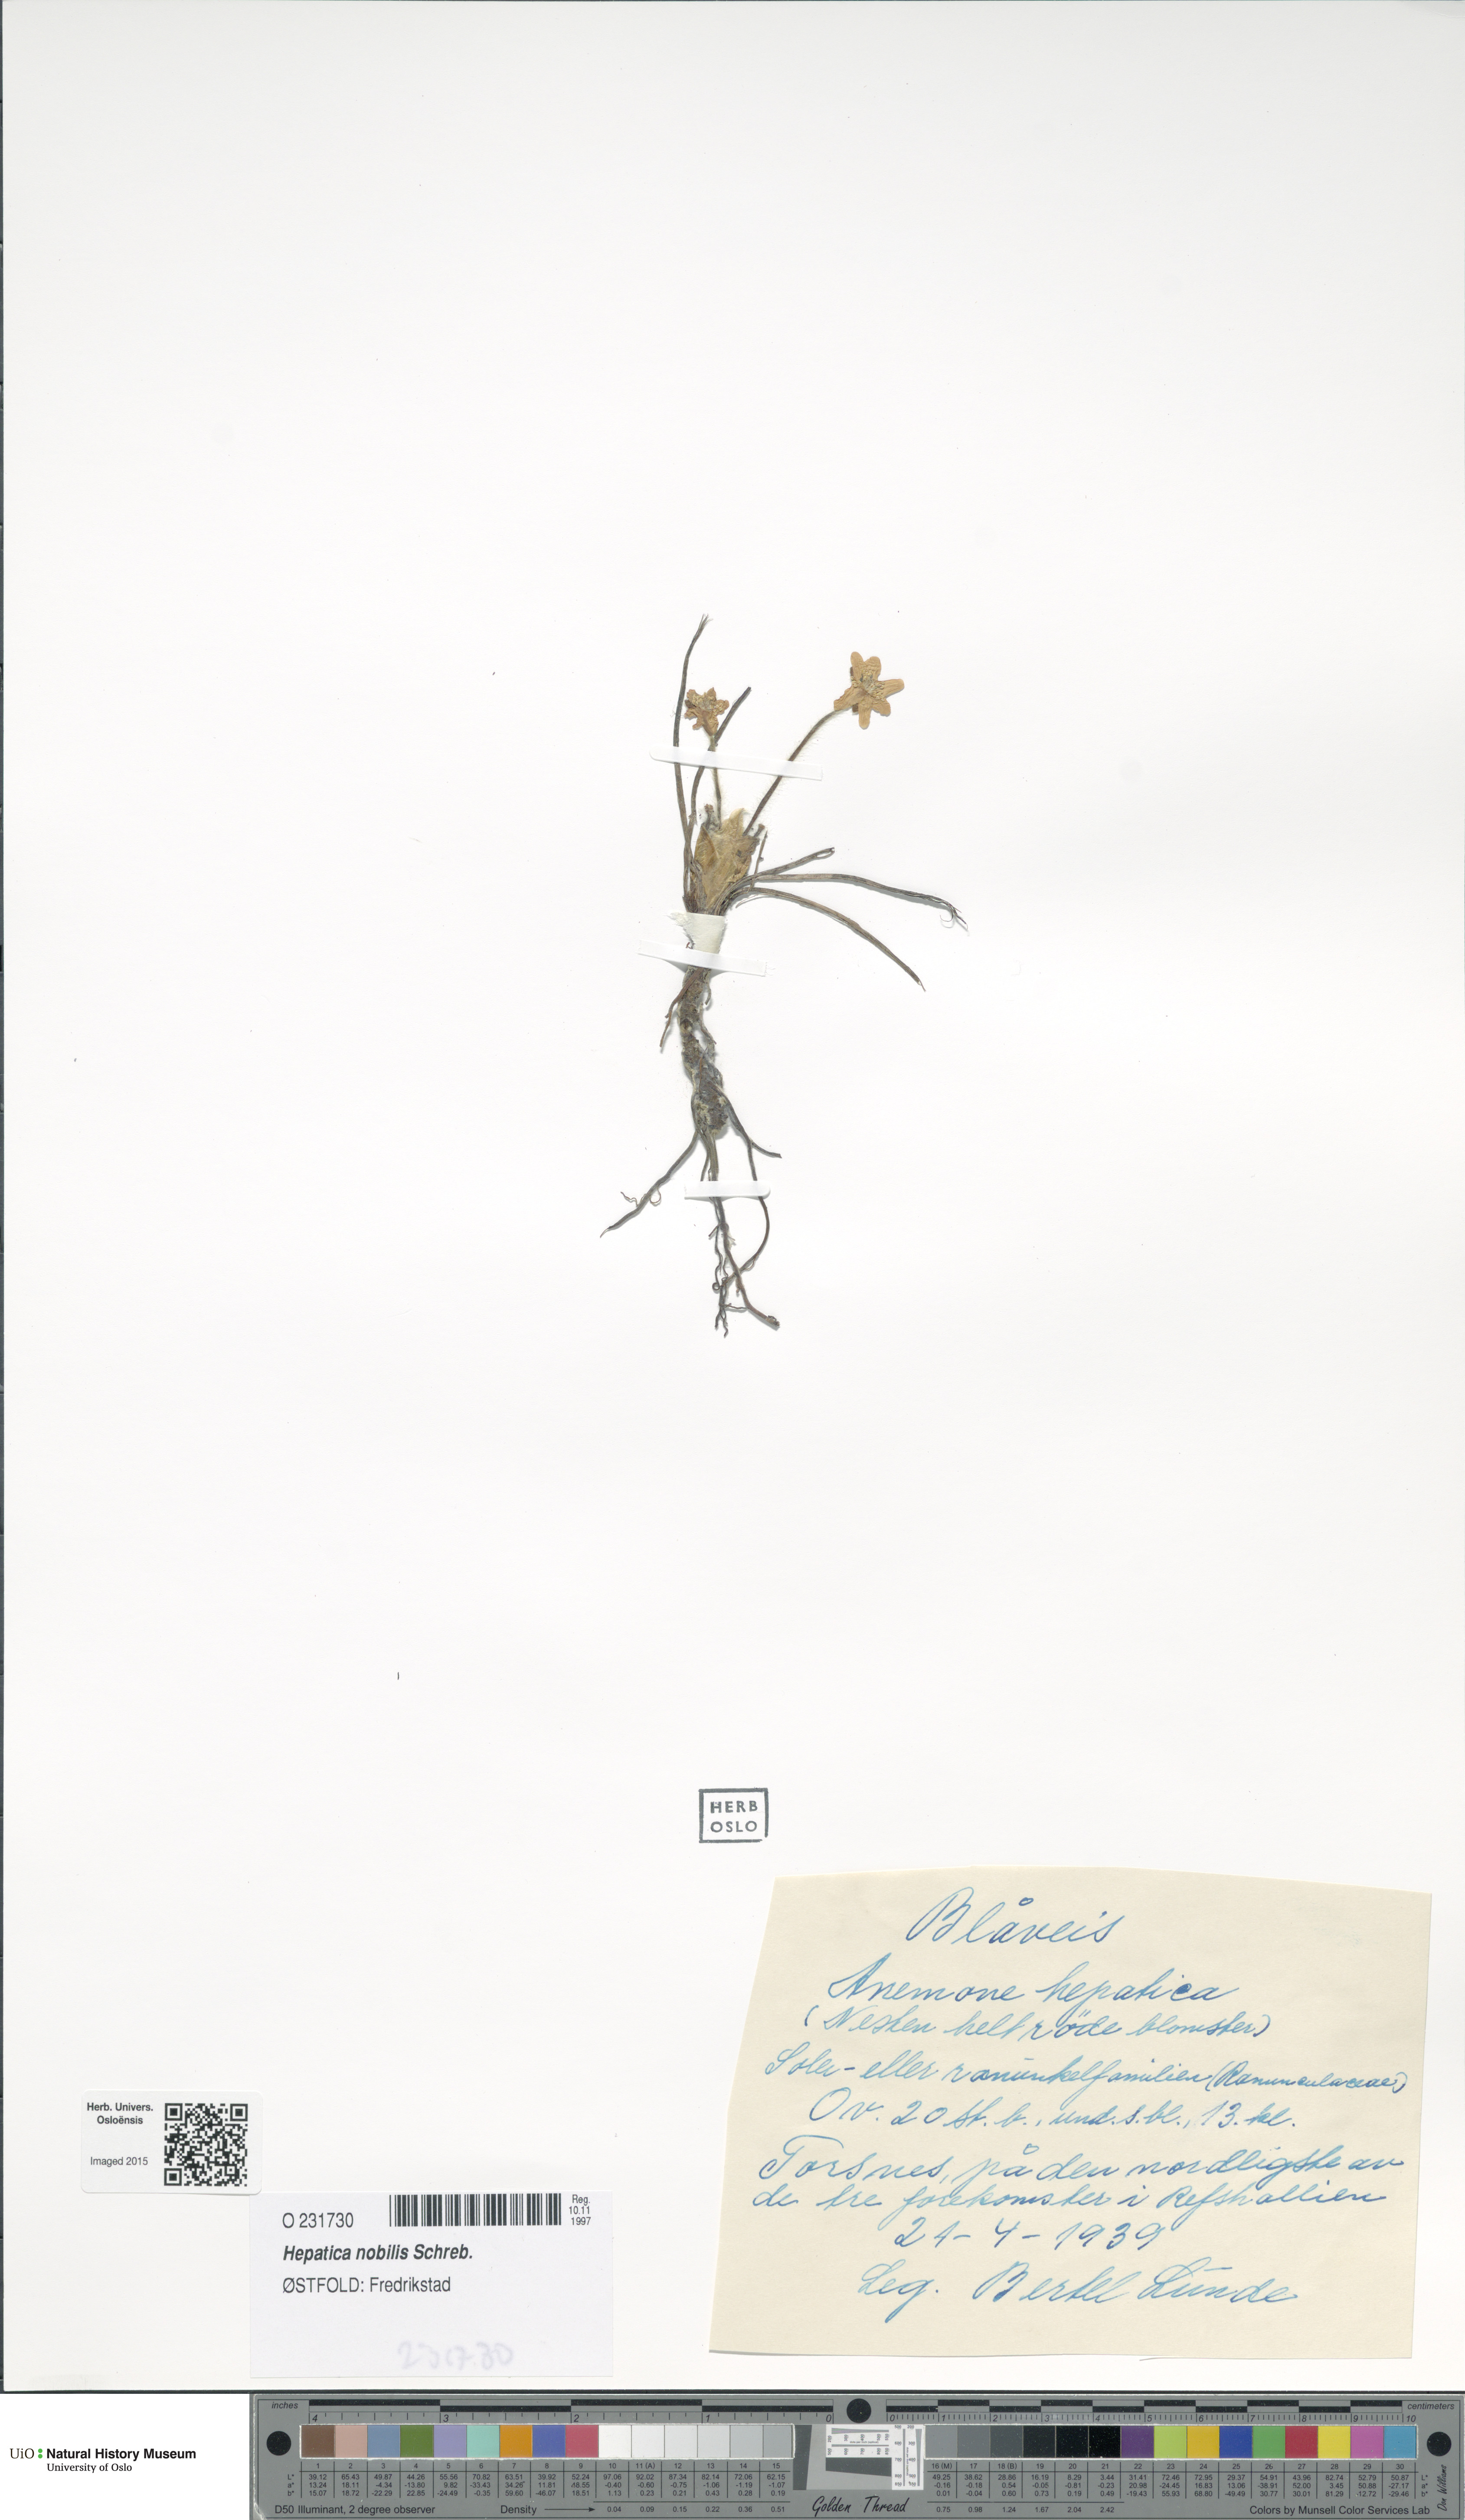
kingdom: Plantae
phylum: Tracheophyta
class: Magnoliopsida
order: Ranunculales
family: Ranunculaceae
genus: Hepatica
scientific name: Hepatica nobilis
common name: Liverleaf
